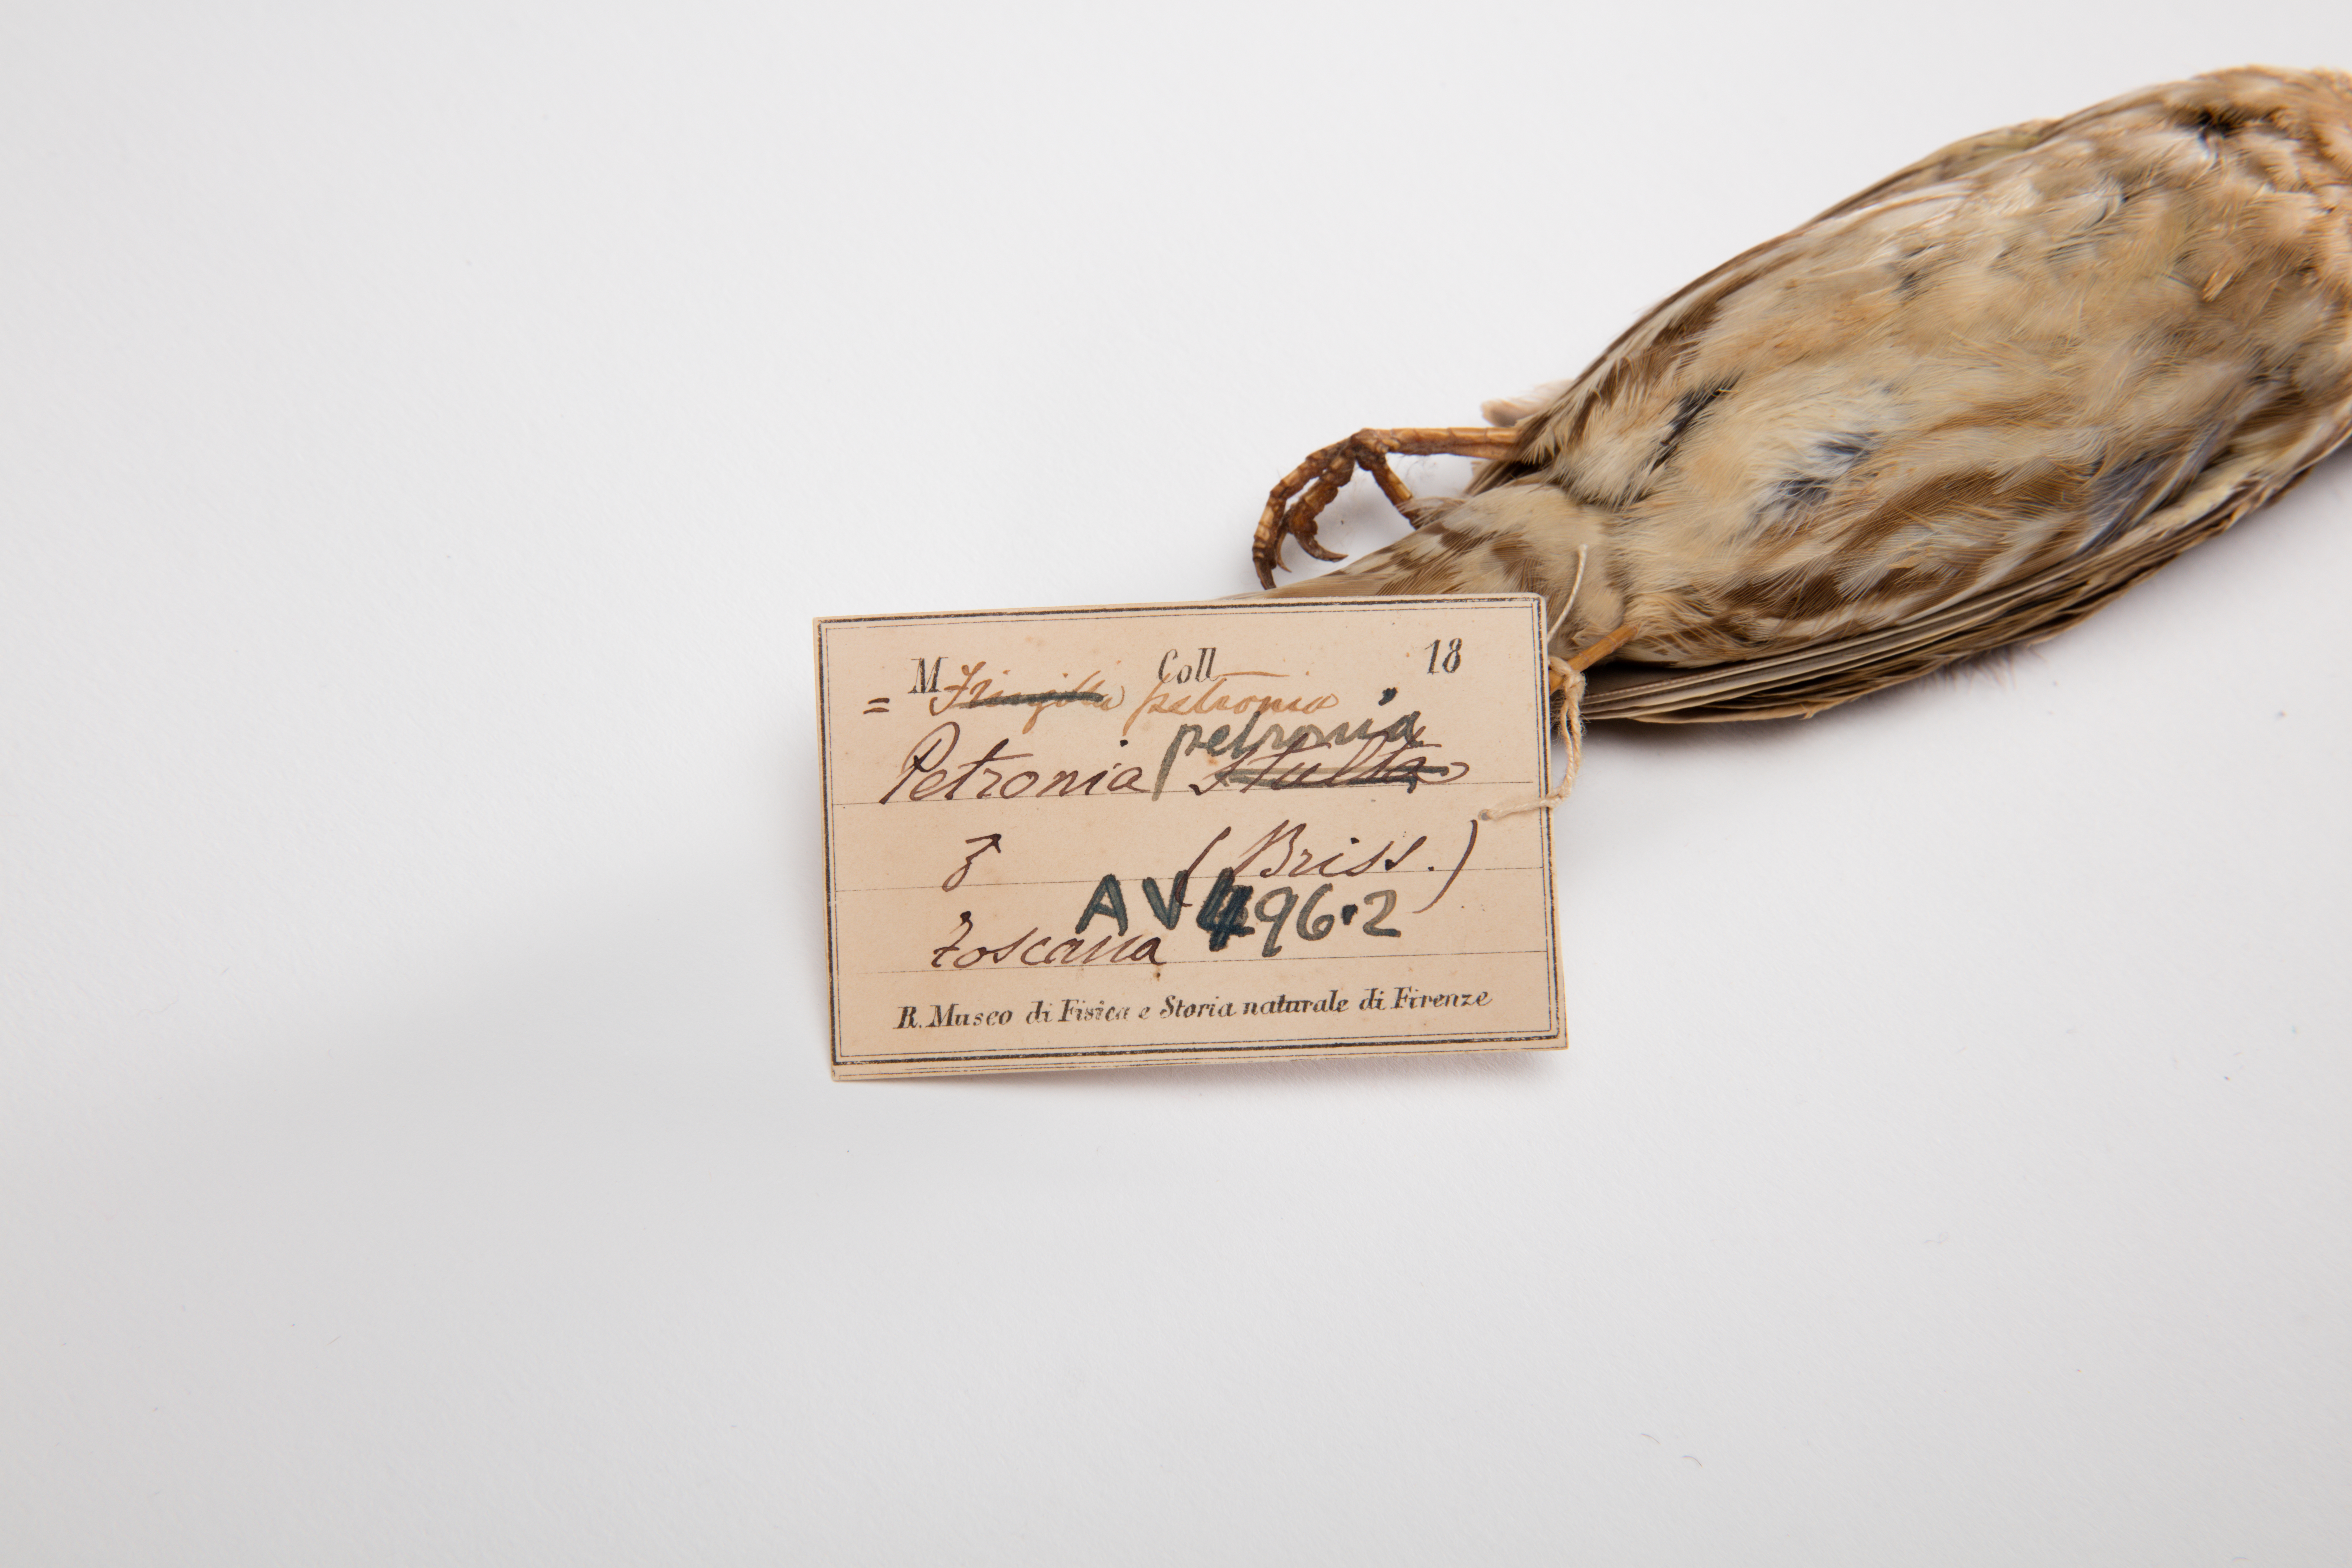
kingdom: Animalia
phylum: Chordata
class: Aves
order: Passeriformes
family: Passeridae
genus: Petronia
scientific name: Petronia petronia
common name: Rock sparrow
